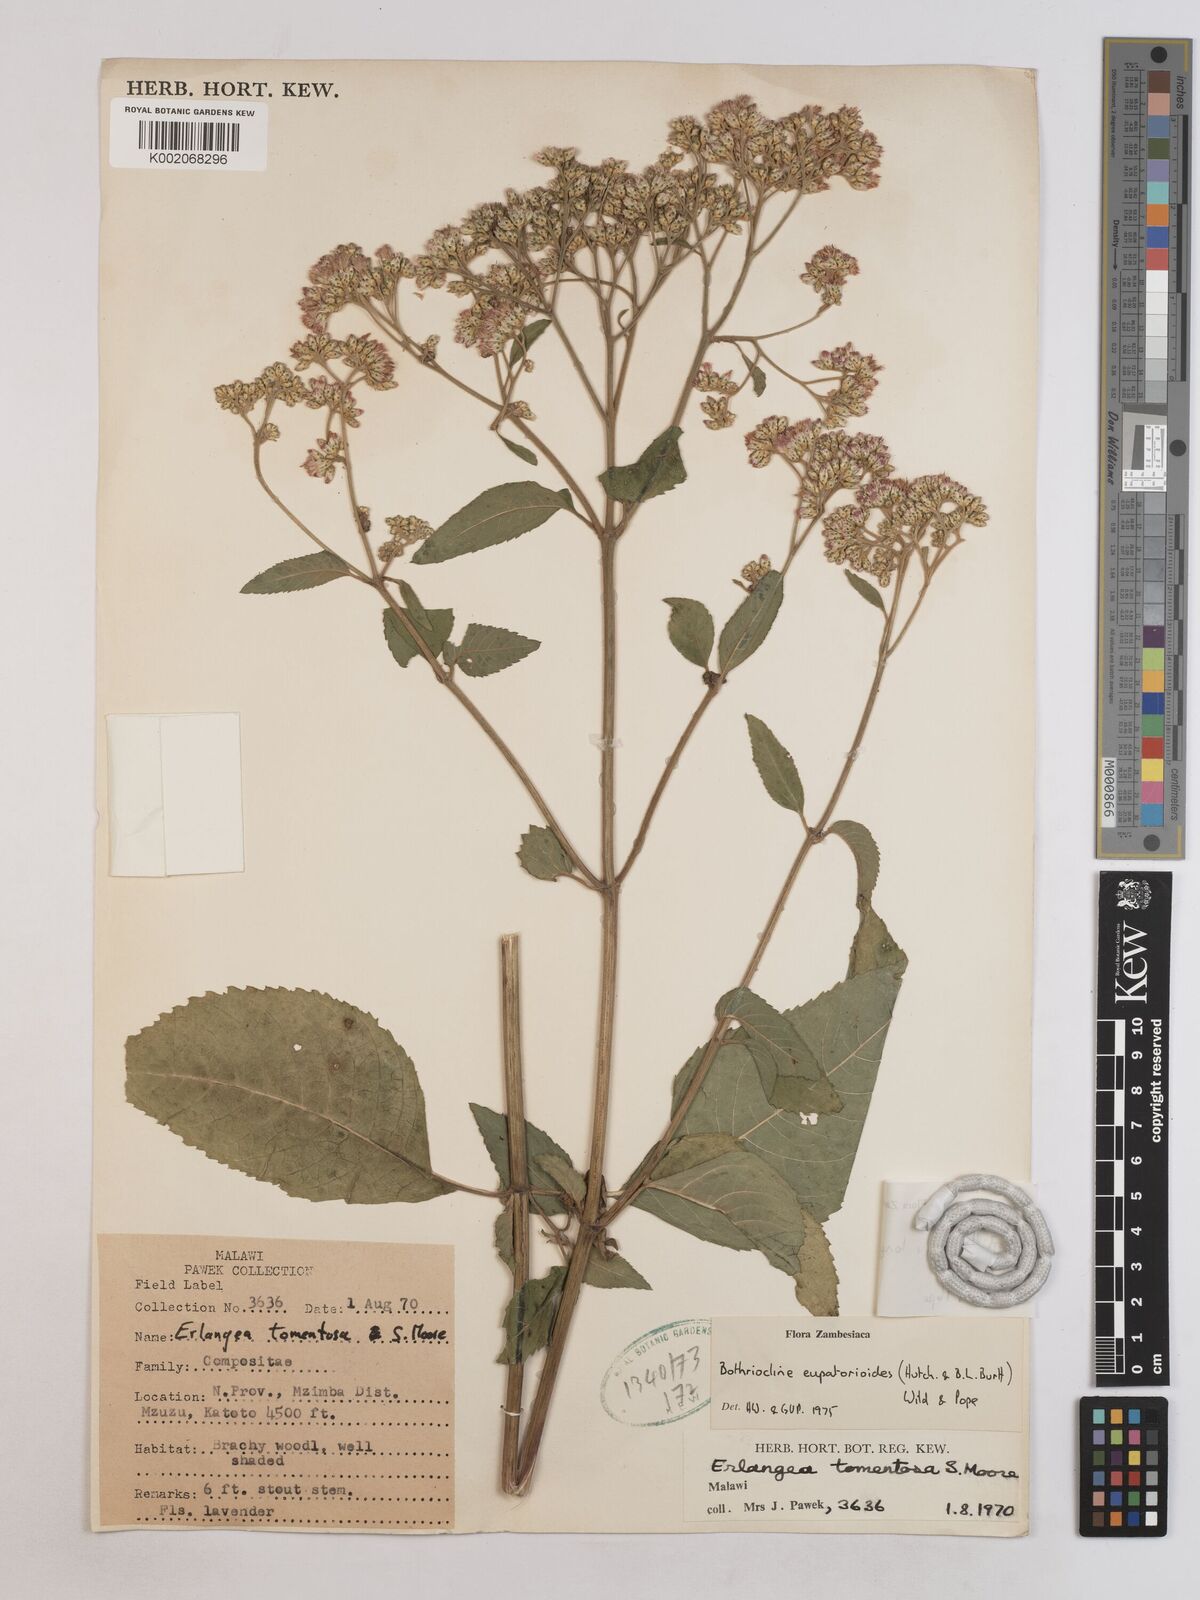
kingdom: Plantae
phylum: Tracheophyta
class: Magnoliopsida
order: Asterales
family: Asteraceae
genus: Bothriocline
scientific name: Bothriocline longipes
